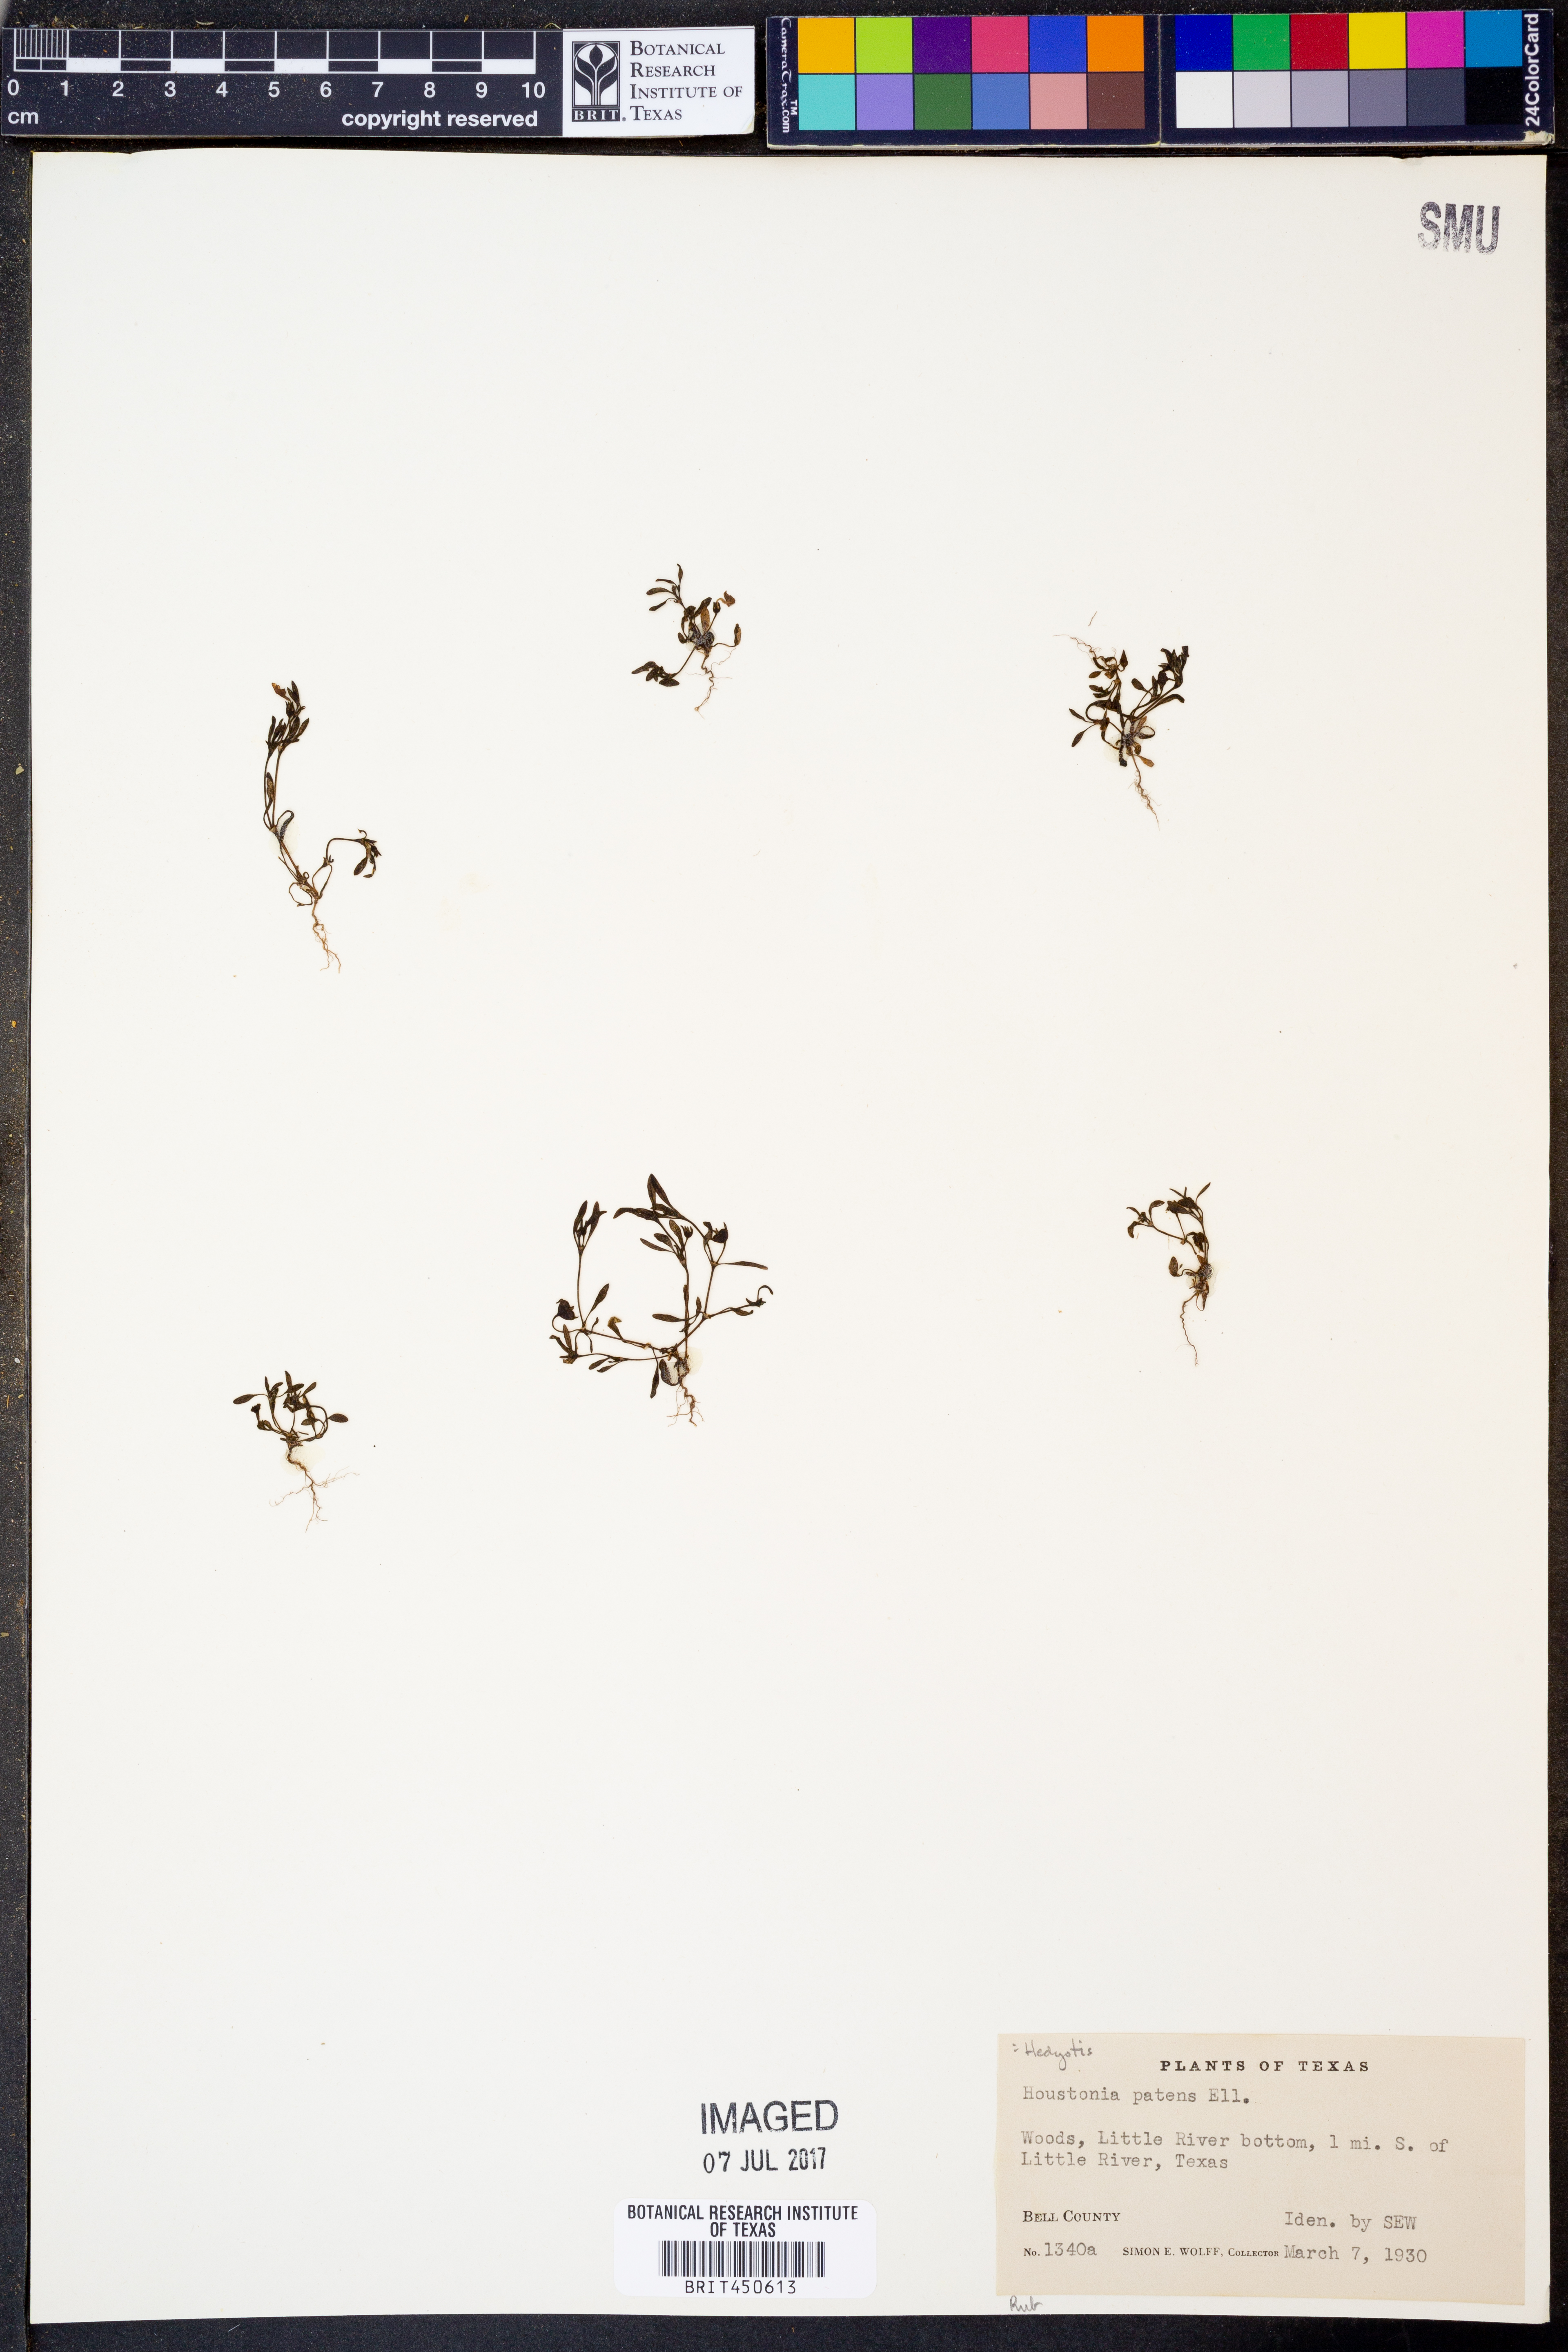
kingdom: Plantae
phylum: Tracheophyta
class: Magnoliopsida
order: Gentianales
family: Rubiaceae
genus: Hedyotis
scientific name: Hedyotis patens
